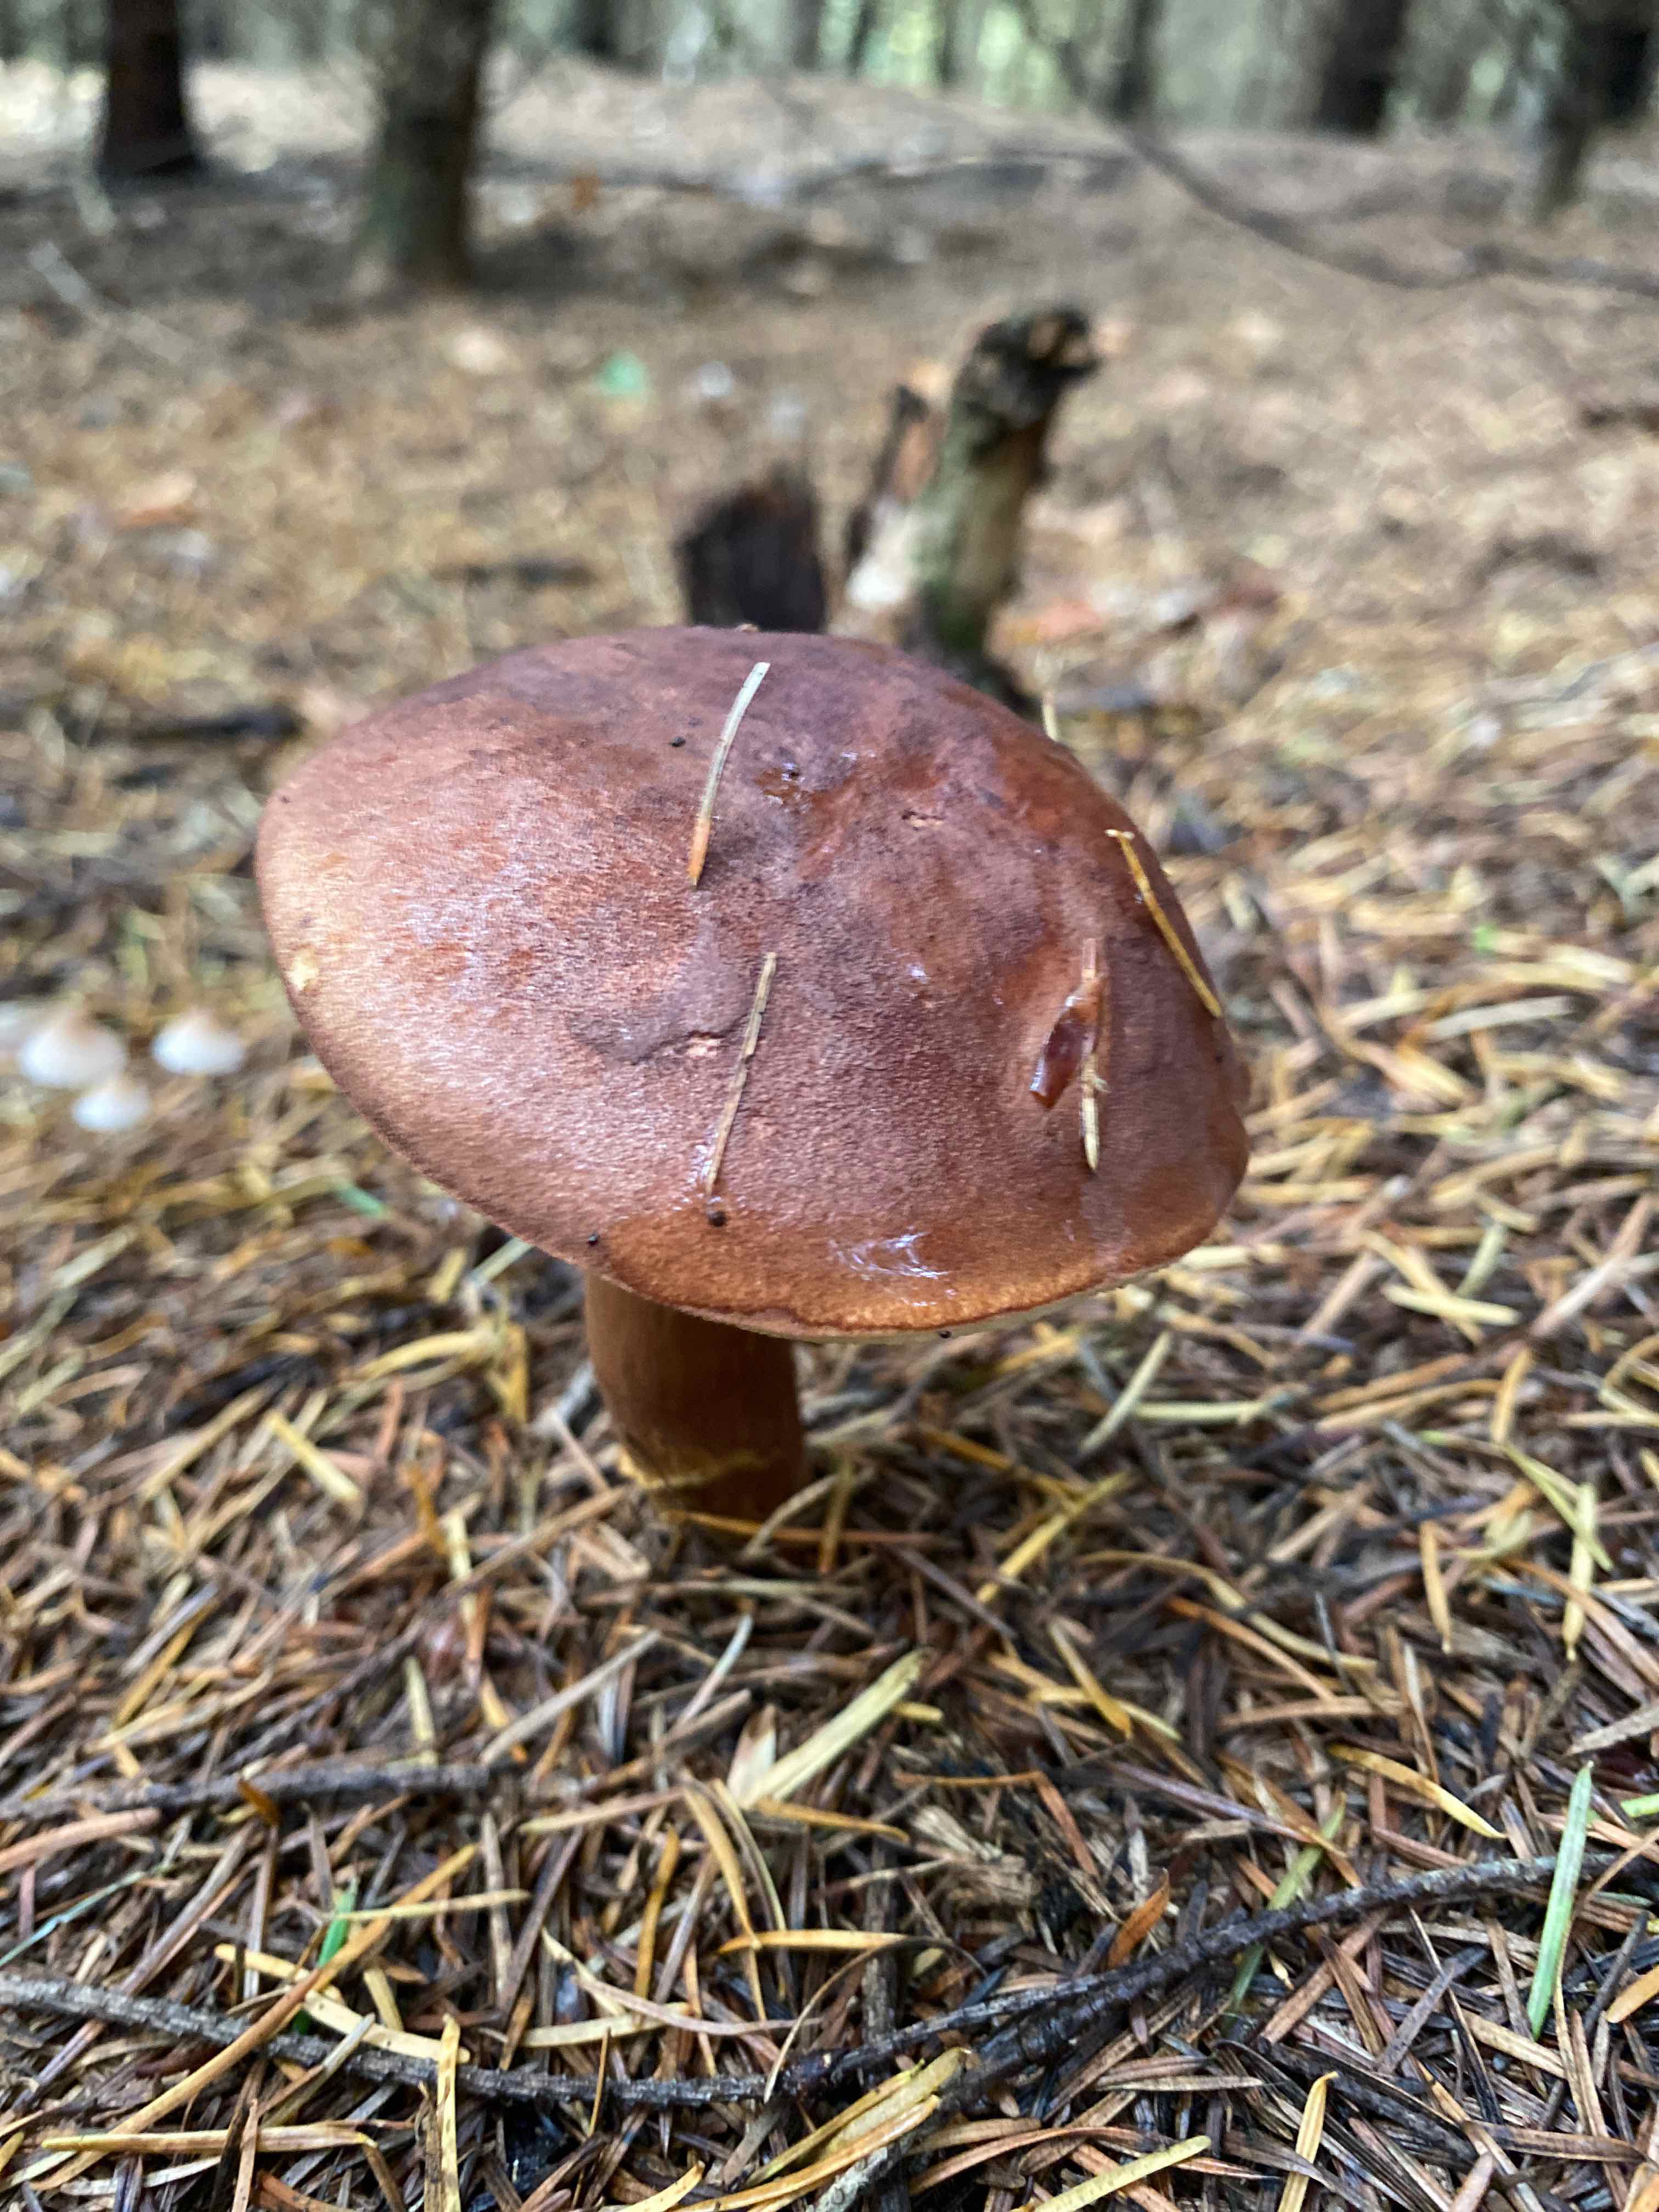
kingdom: Fungi
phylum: Basidiomycota
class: Agaricomycetes
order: Boletales
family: Boletaceae
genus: Imleria
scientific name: Imleria badia
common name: brunstokket rørhat
